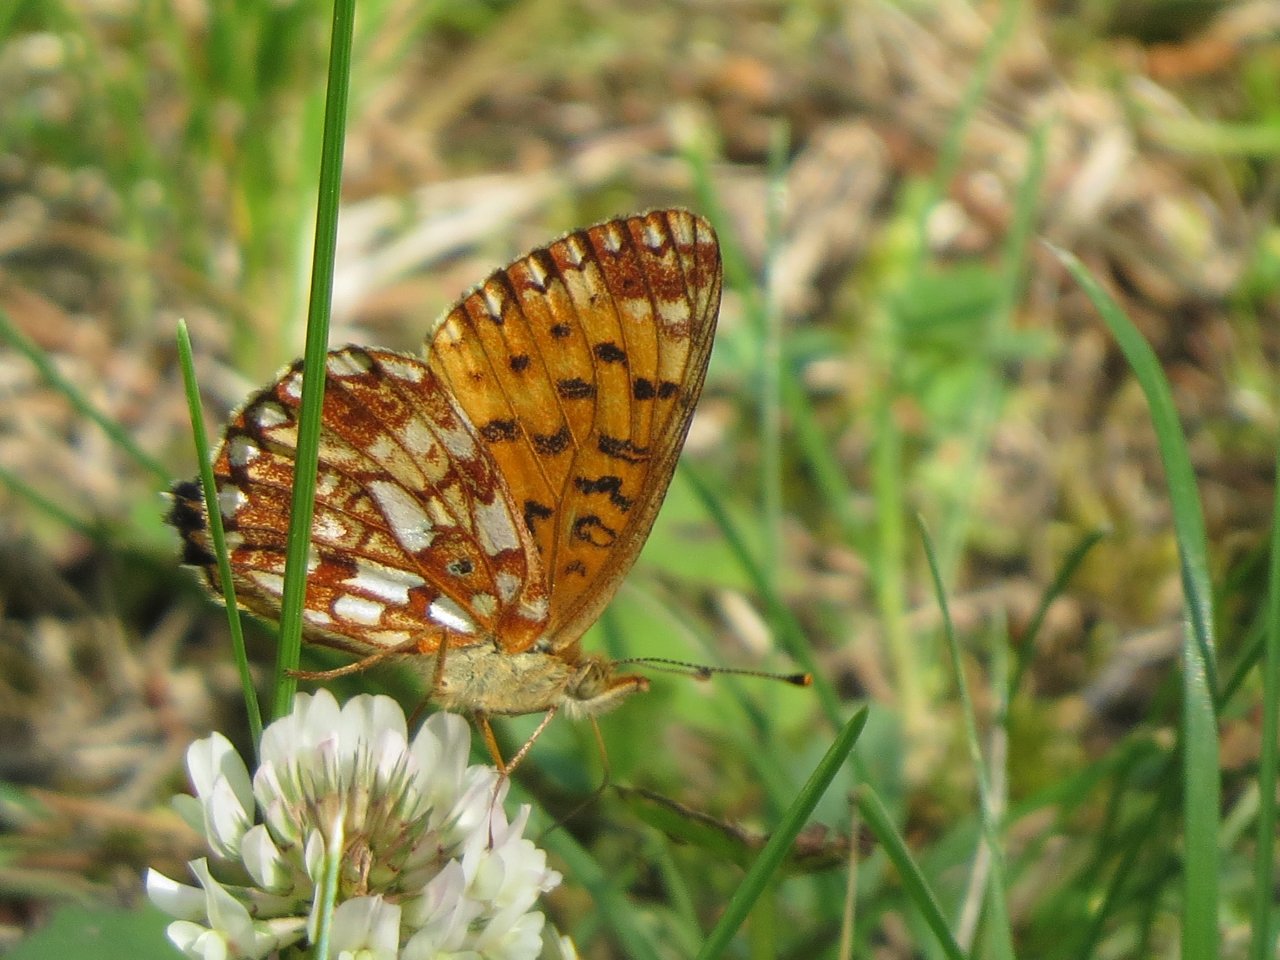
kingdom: Animalia
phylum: Arthropoda
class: Insecta
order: Lepidoptera
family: Nymphalidae
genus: Boloria
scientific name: Boloria selene
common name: Silver-bordered Fritillary
